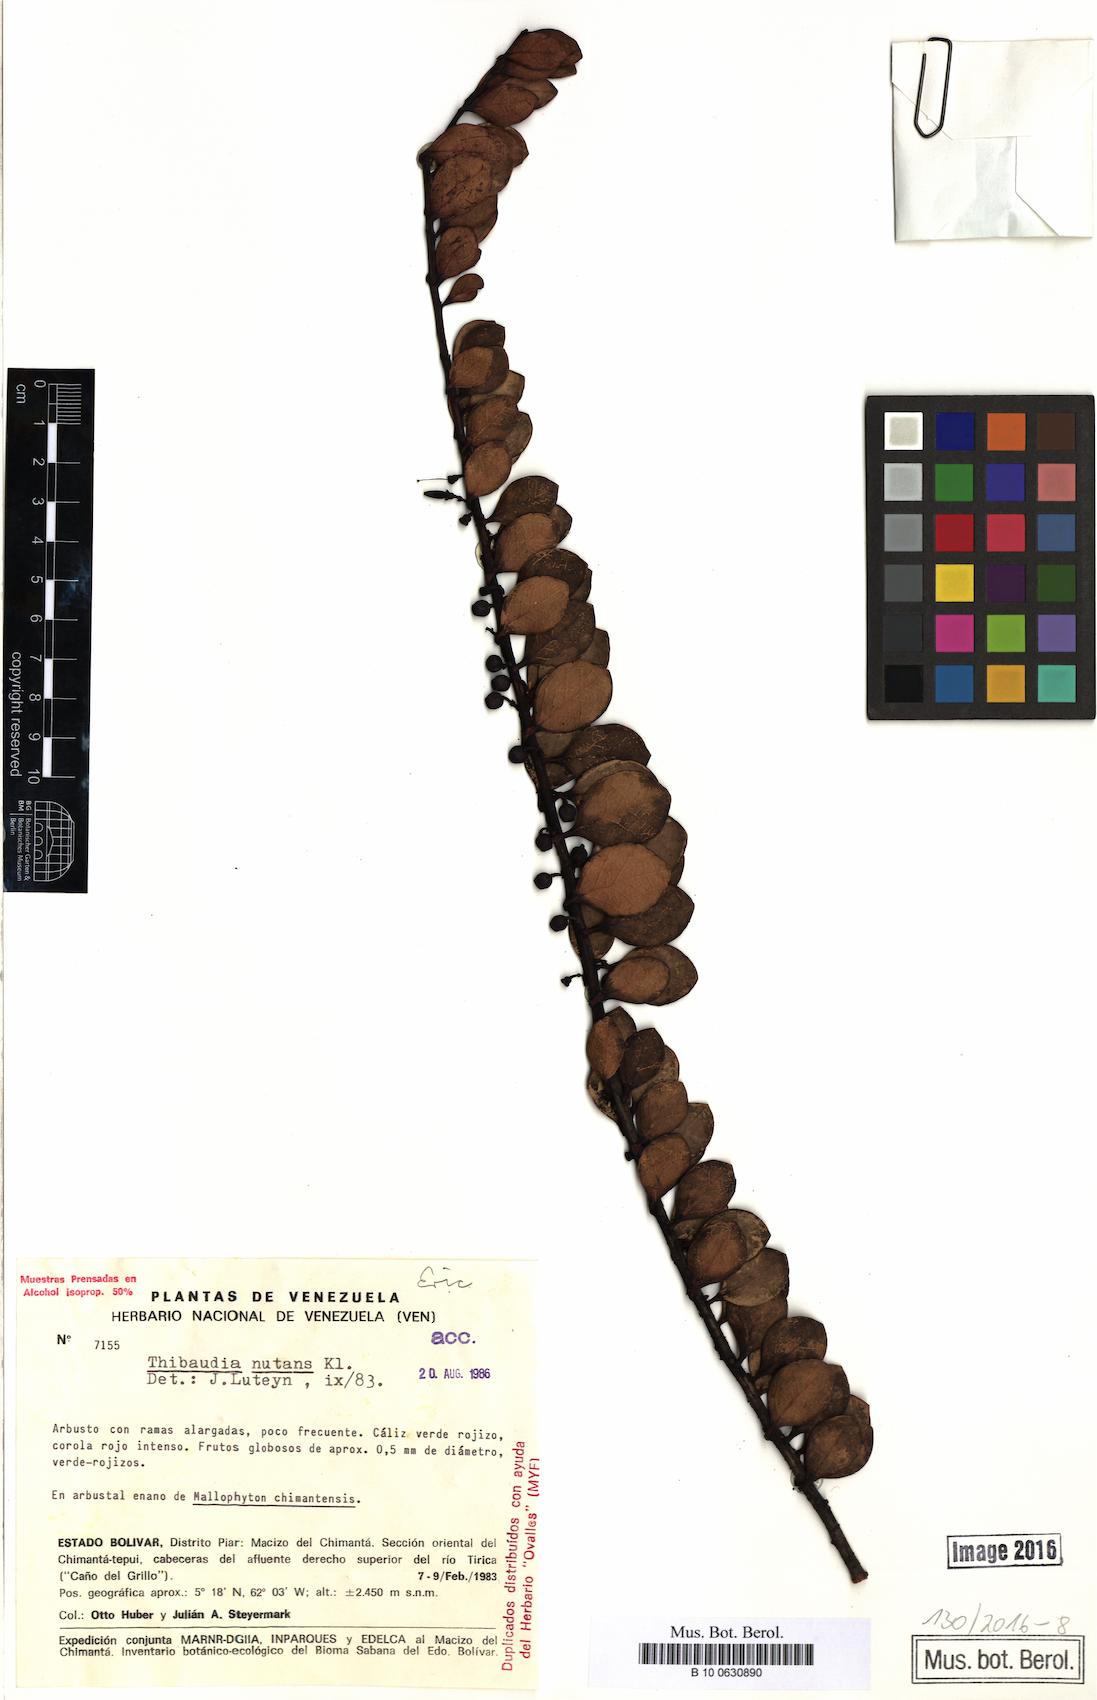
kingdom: Plantae
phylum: Tracheophyta
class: Magnoliopsida
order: Ericales
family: Ericaceae
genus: Psammisia
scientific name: Psammisia coarctata
